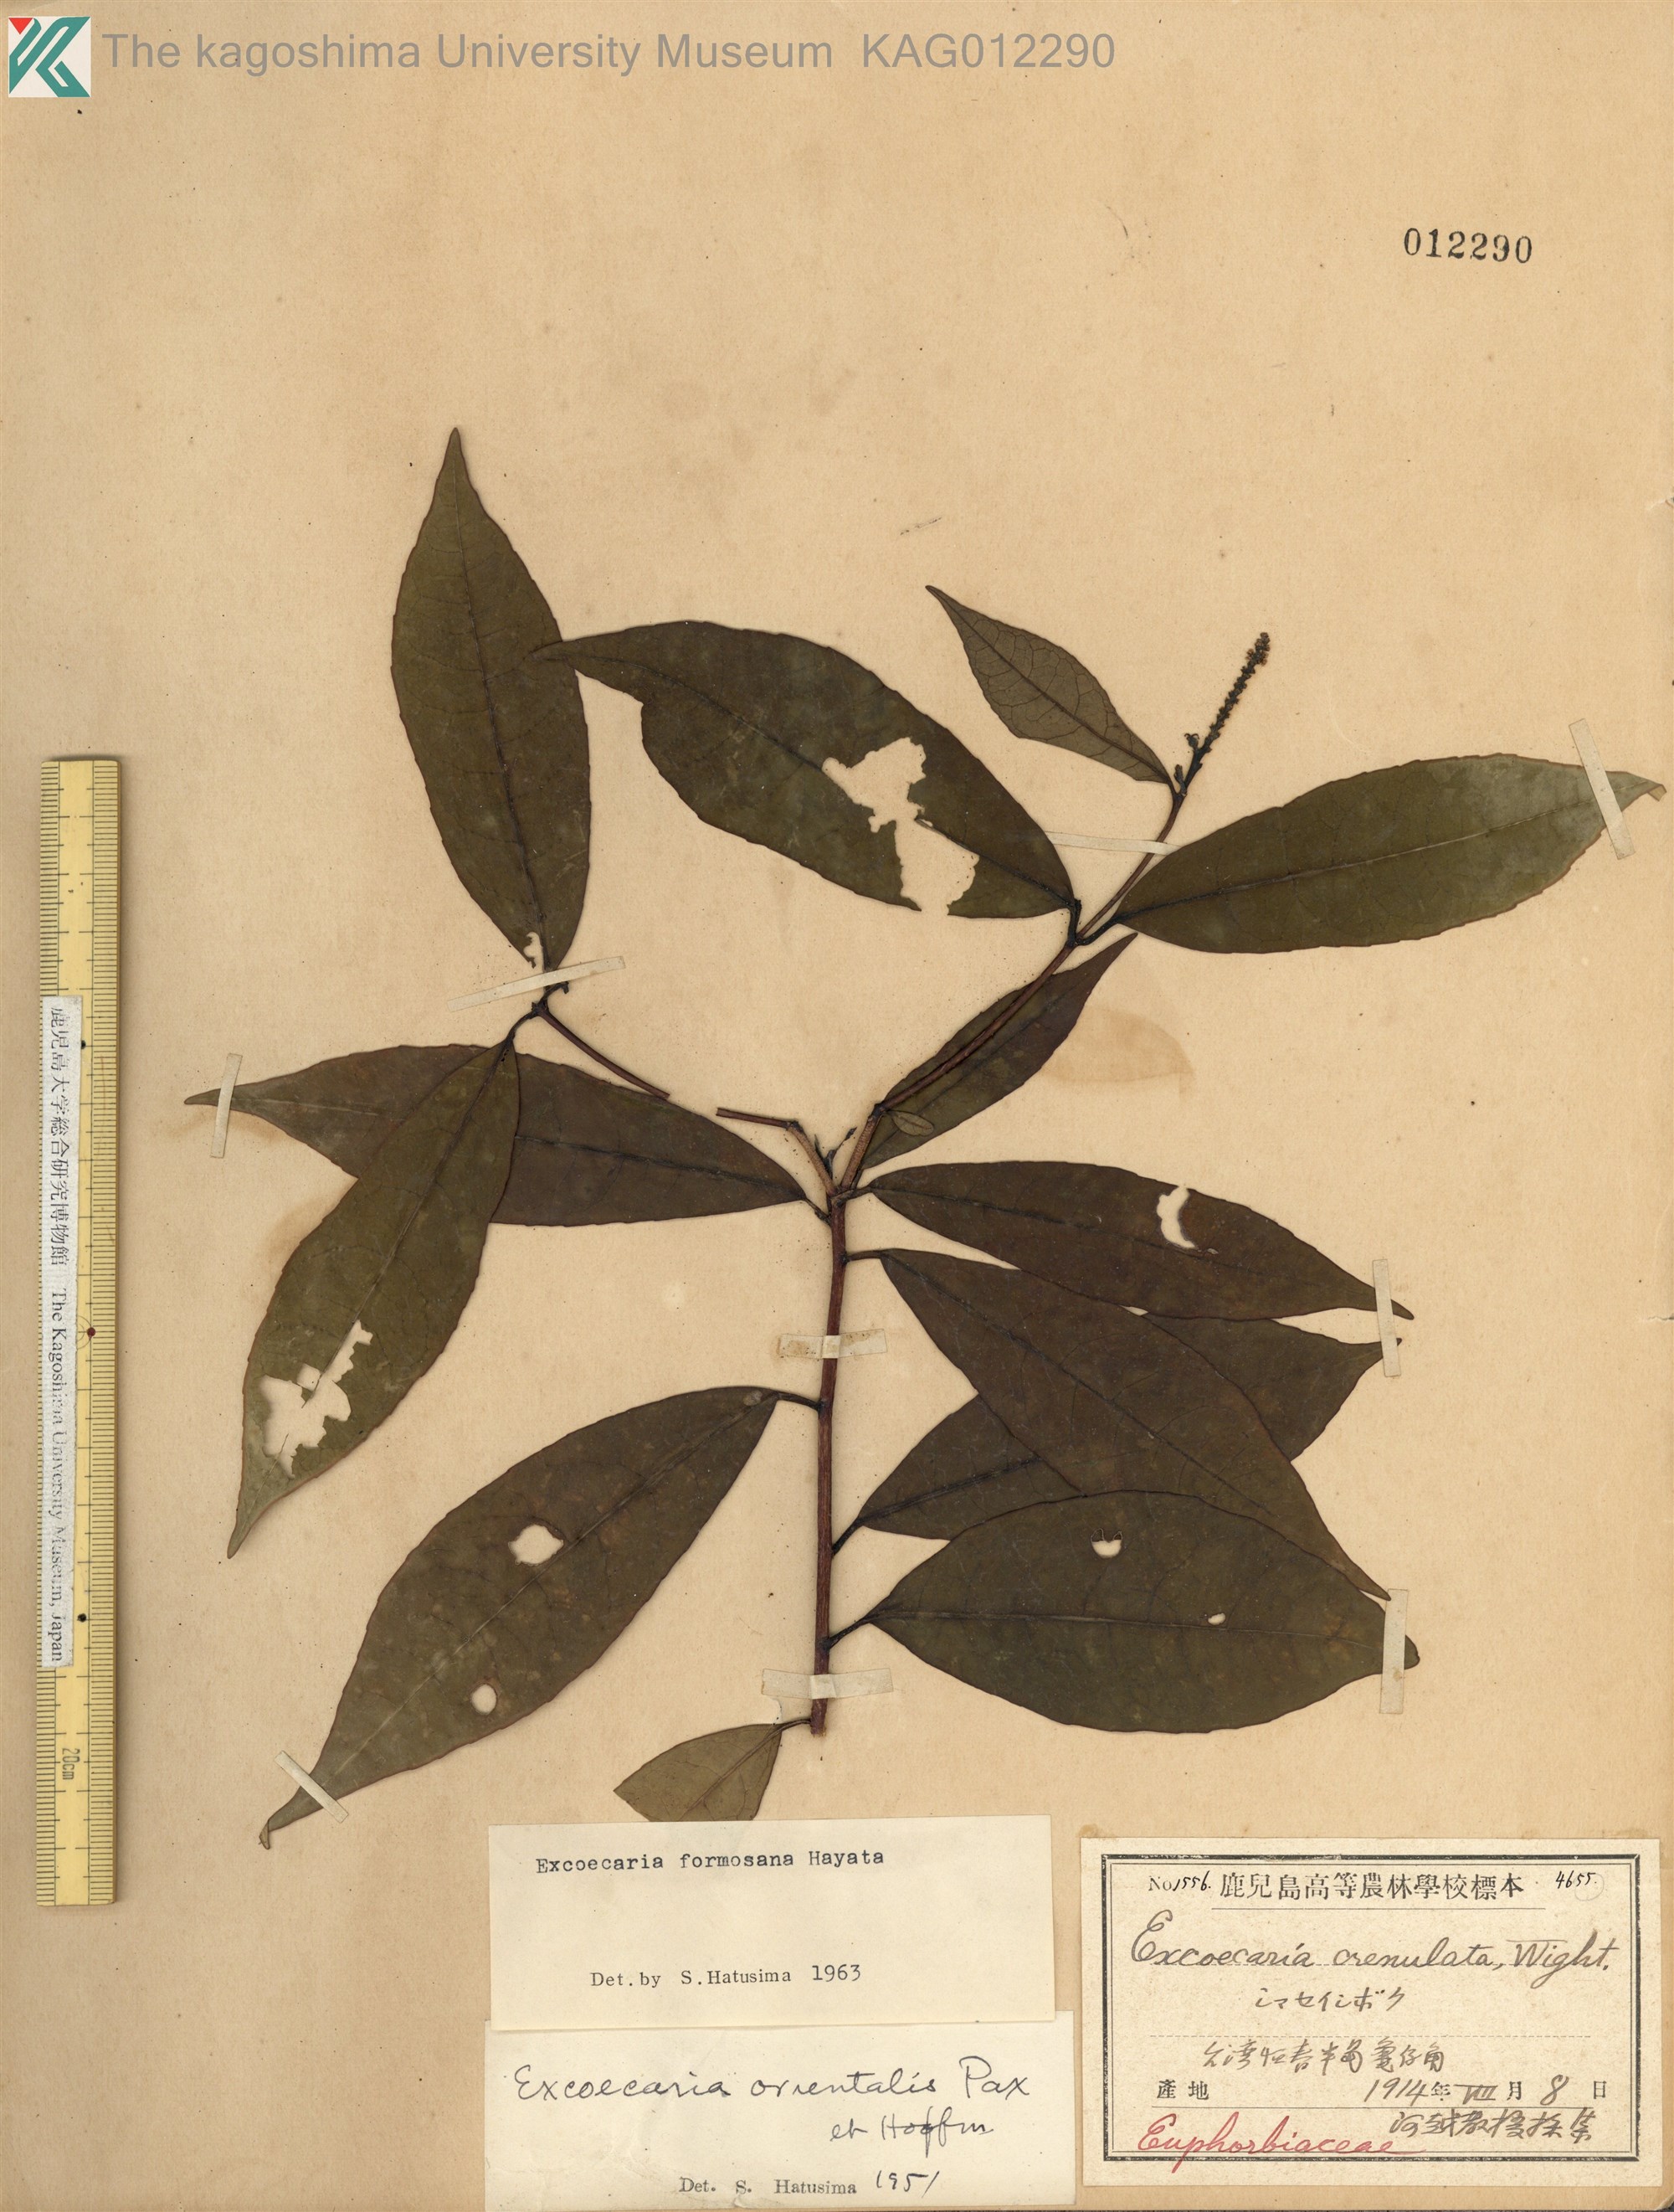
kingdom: Plantae
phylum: Tracheophyta
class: Magnoliopsida
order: Malpighiales
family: Euphorbiaceae
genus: Excoecaria
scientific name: Excoecaria formosana
